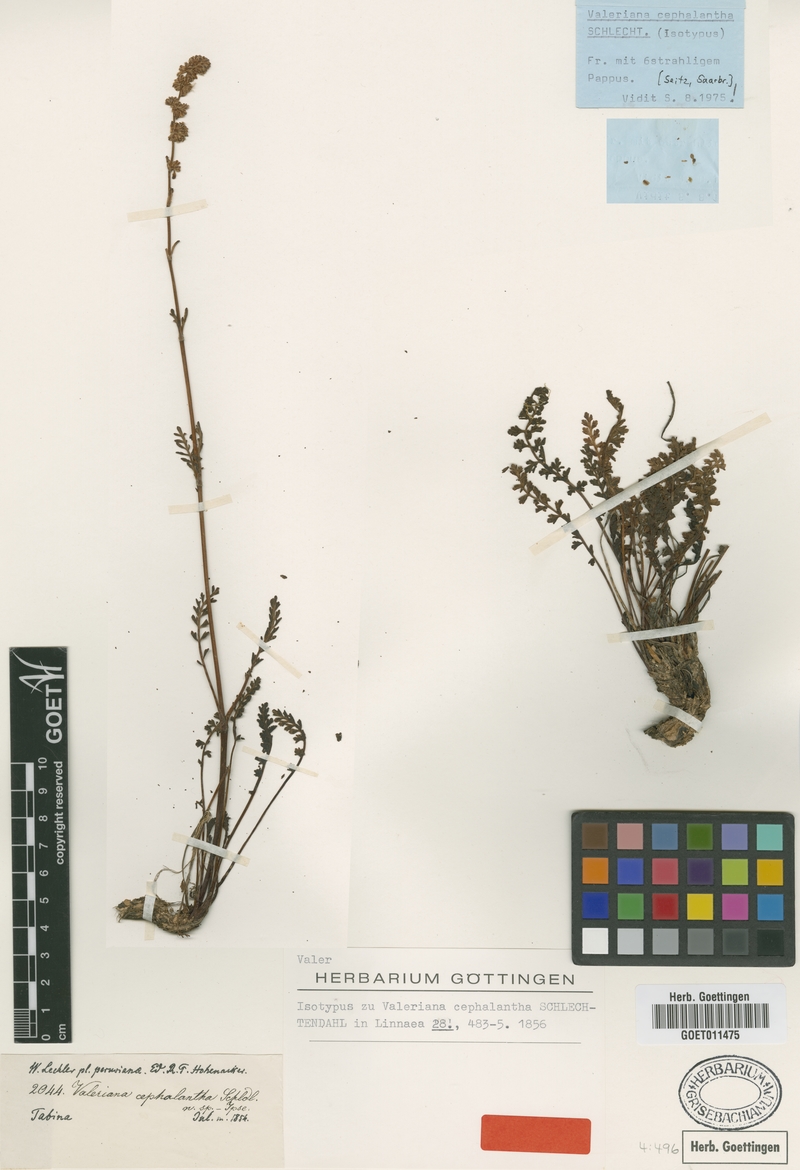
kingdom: Plantae
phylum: Tracheophyta
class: Magnoliopsida
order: Dipsacales
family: Caprifoliaceae
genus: Valeriana
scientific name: Valeriana cephalantha
